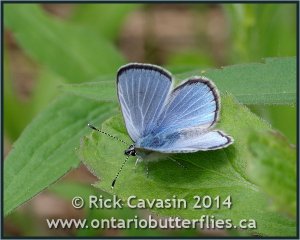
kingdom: Animalia
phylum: Arthropoda
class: Insecta
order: Lepidoptera
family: Lycaenidae
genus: Glaucopsyche
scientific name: Glaucopsyche lygdamus
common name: Silvery Blue
